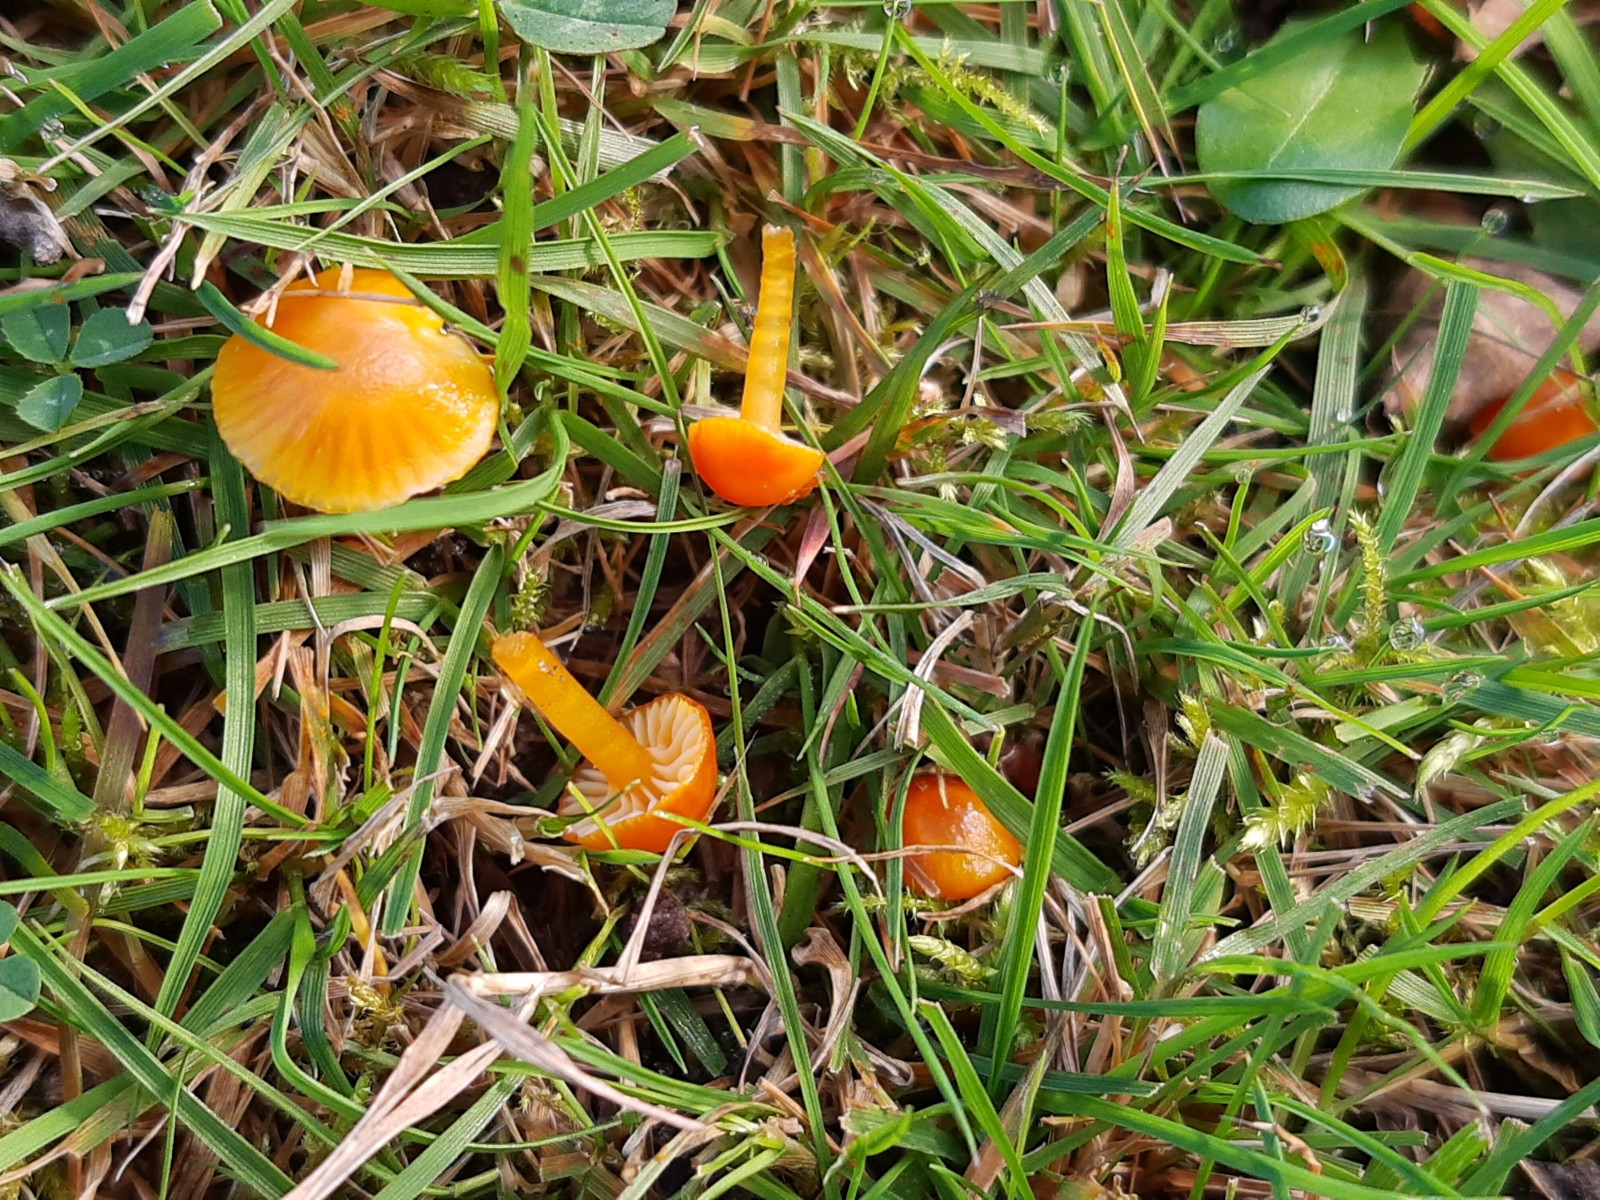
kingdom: Fungi
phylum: Basidiomycota
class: Agaricomycetes
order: Agaricales
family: Hygrophoraceae
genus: Hygrocybe
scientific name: Hygrocybe insipida
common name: liden vokshat
